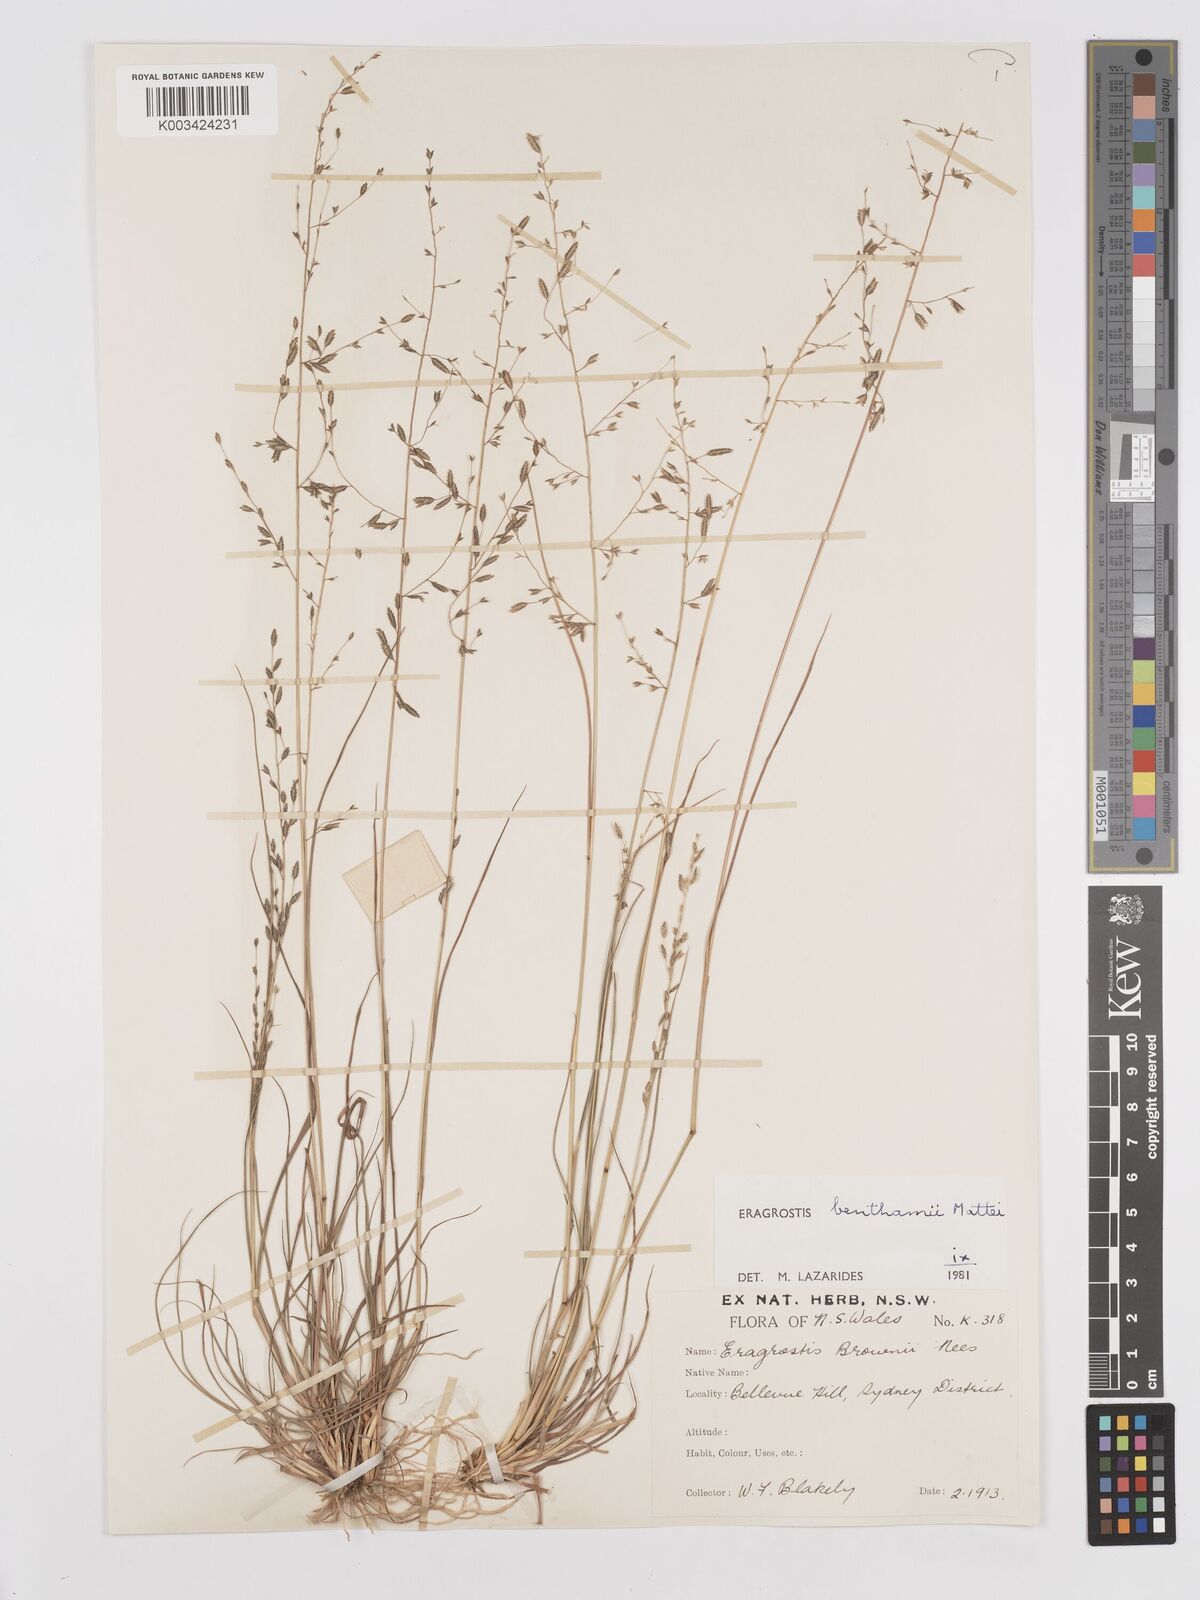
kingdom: Plantae
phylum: Tracheophyta
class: Liliopsida
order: Poales
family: Poaceae
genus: Eragrostis
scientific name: Eragrostis brownii
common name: Lovegrass
